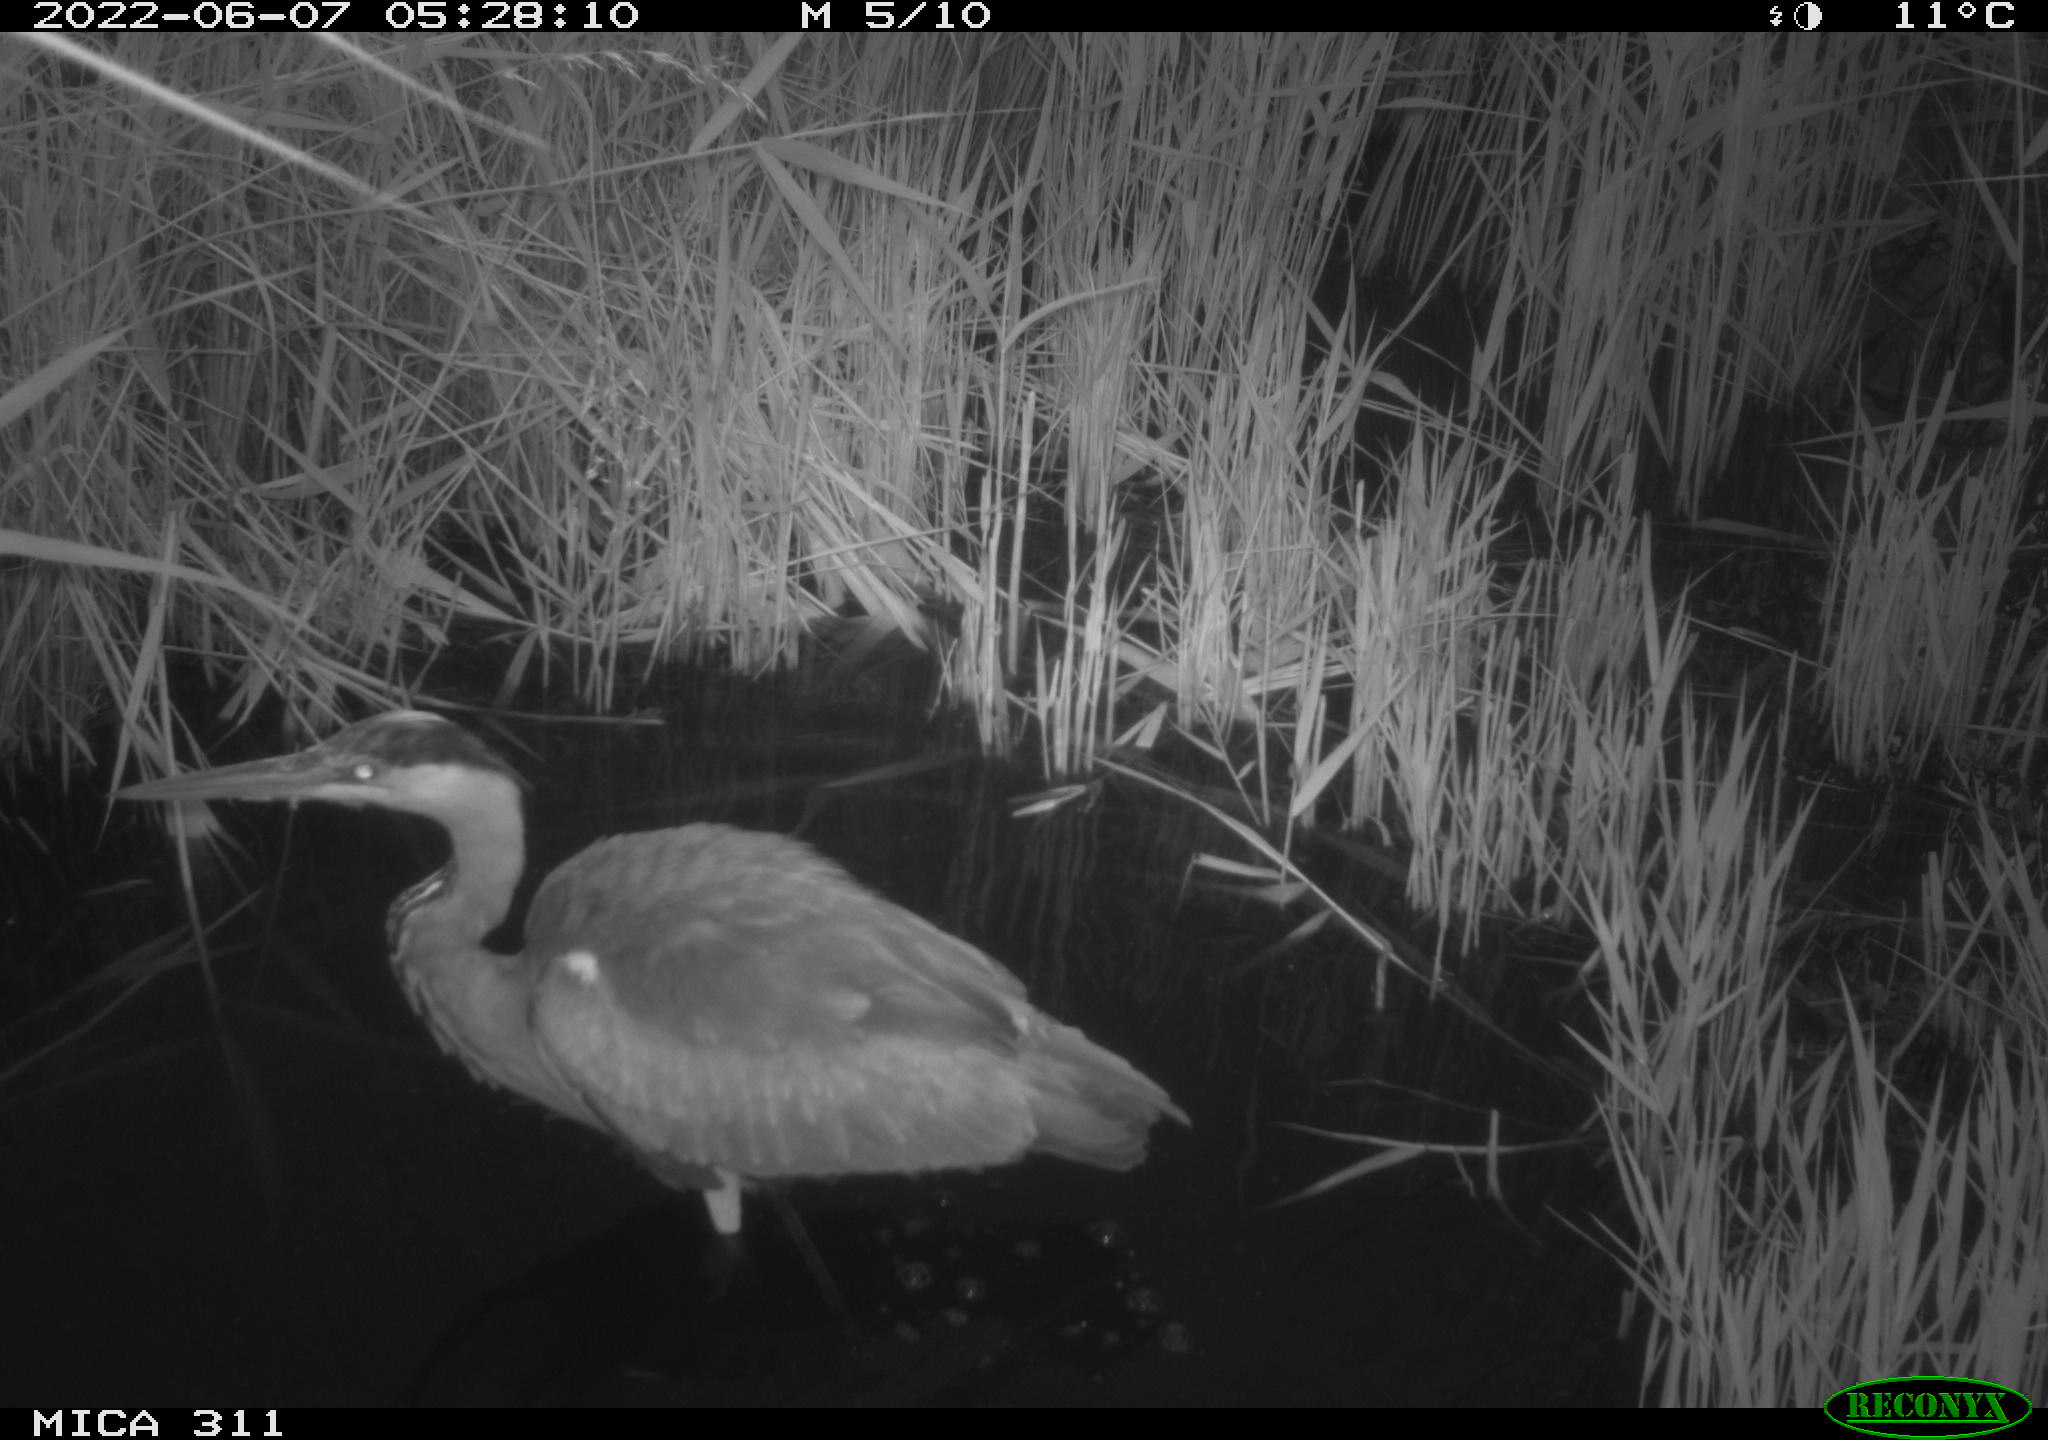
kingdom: Animalia
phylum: Chordata
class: Aves
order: Pelecaniformes
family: Ardeidae
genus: Ardea
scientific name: Ardea cinerea
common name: Grey heron
